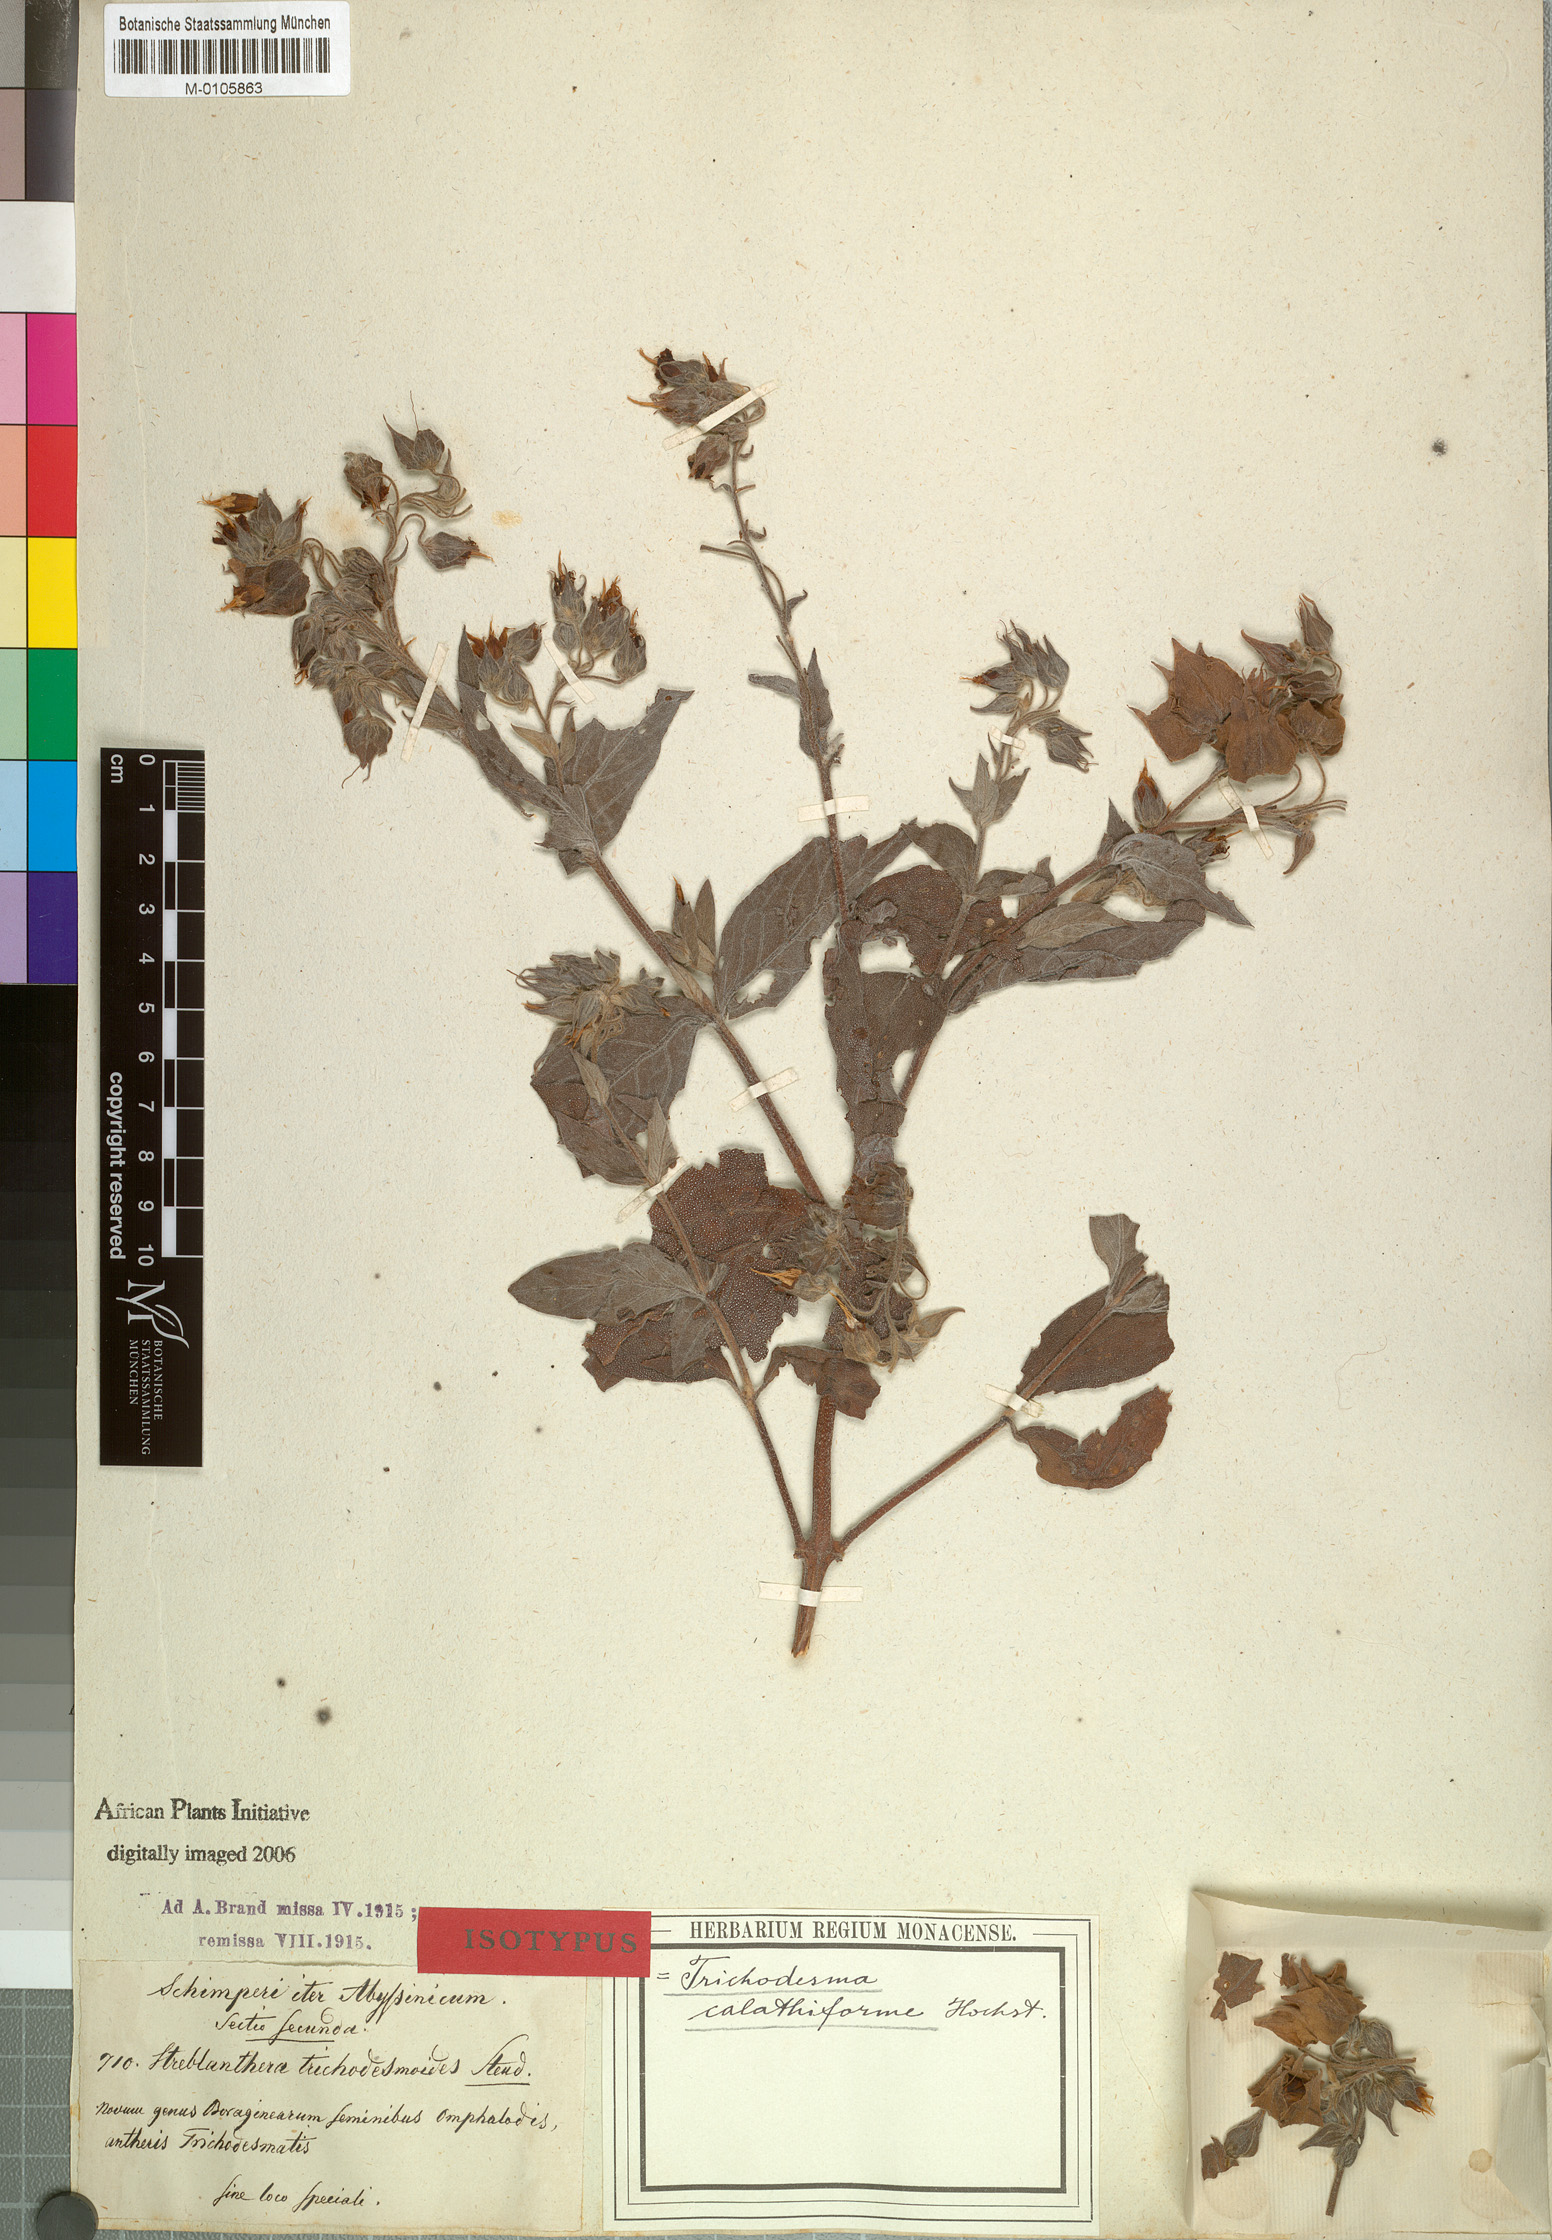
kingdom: Plantae
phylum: Tracheophyta
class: Magnoliopsida
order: Boraginales
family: Boraginaceae
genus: Trichodesma
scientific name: Trichodesma trichodesmoides
